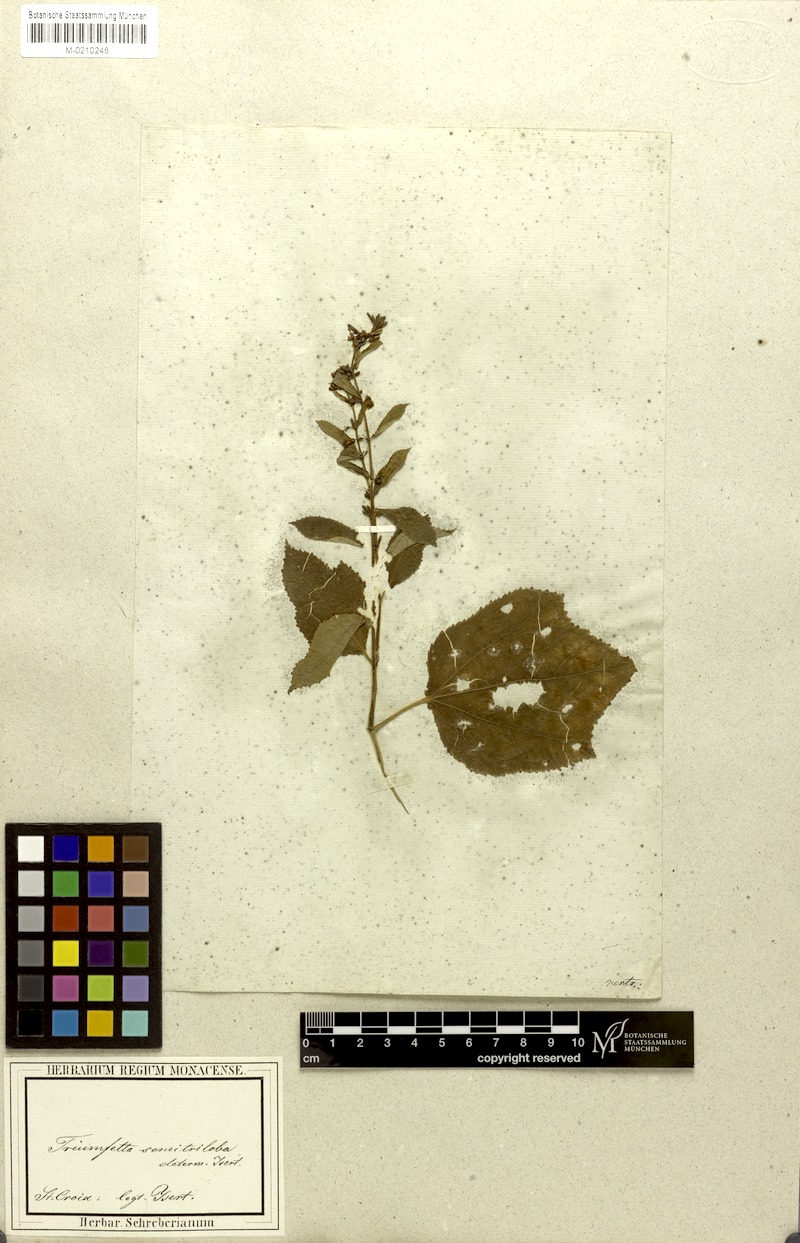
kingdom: Plantae
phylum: Tracheophyta
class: Magnoliopsida
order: Malvales
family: Malvaceae
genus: Triumfetta
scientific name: Triumfetta semitriloba
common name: Sacramento burbark
